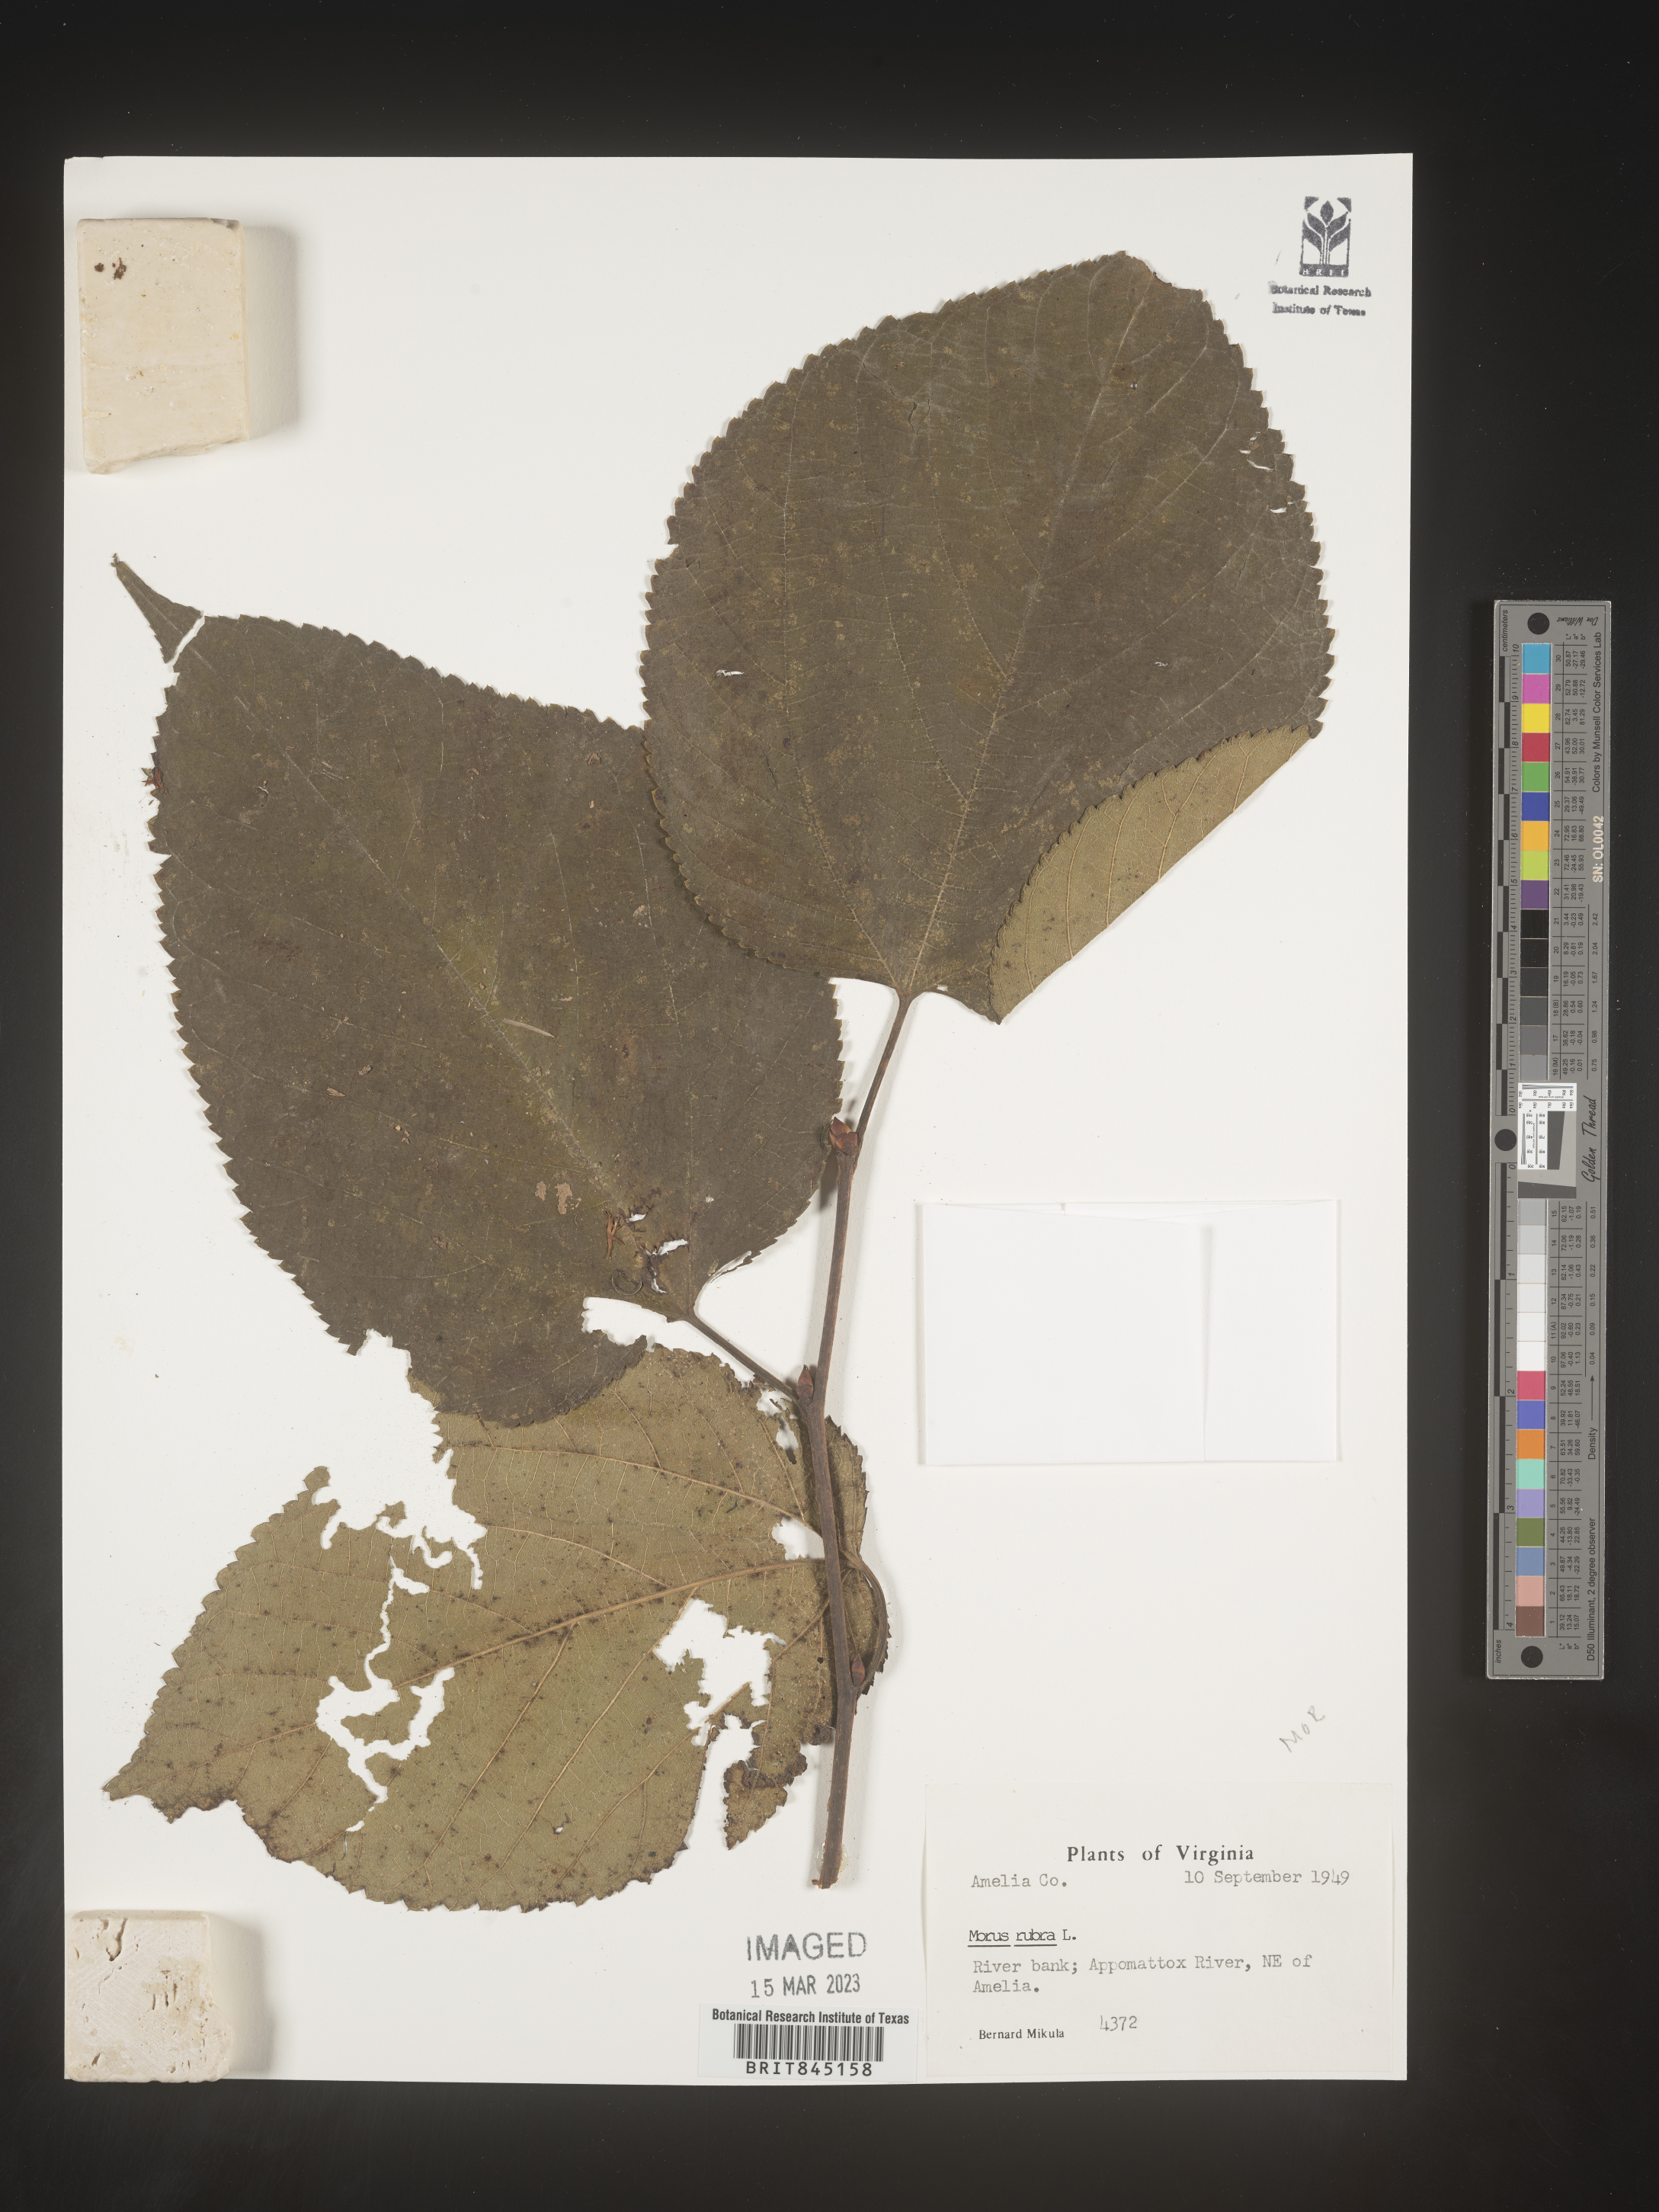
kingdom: Plantae
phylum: Tracheophyta
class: Magnoliopsida
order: Rosales
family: Moraceae
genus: Morus
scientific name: Morus rubra
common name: Red mulberry
